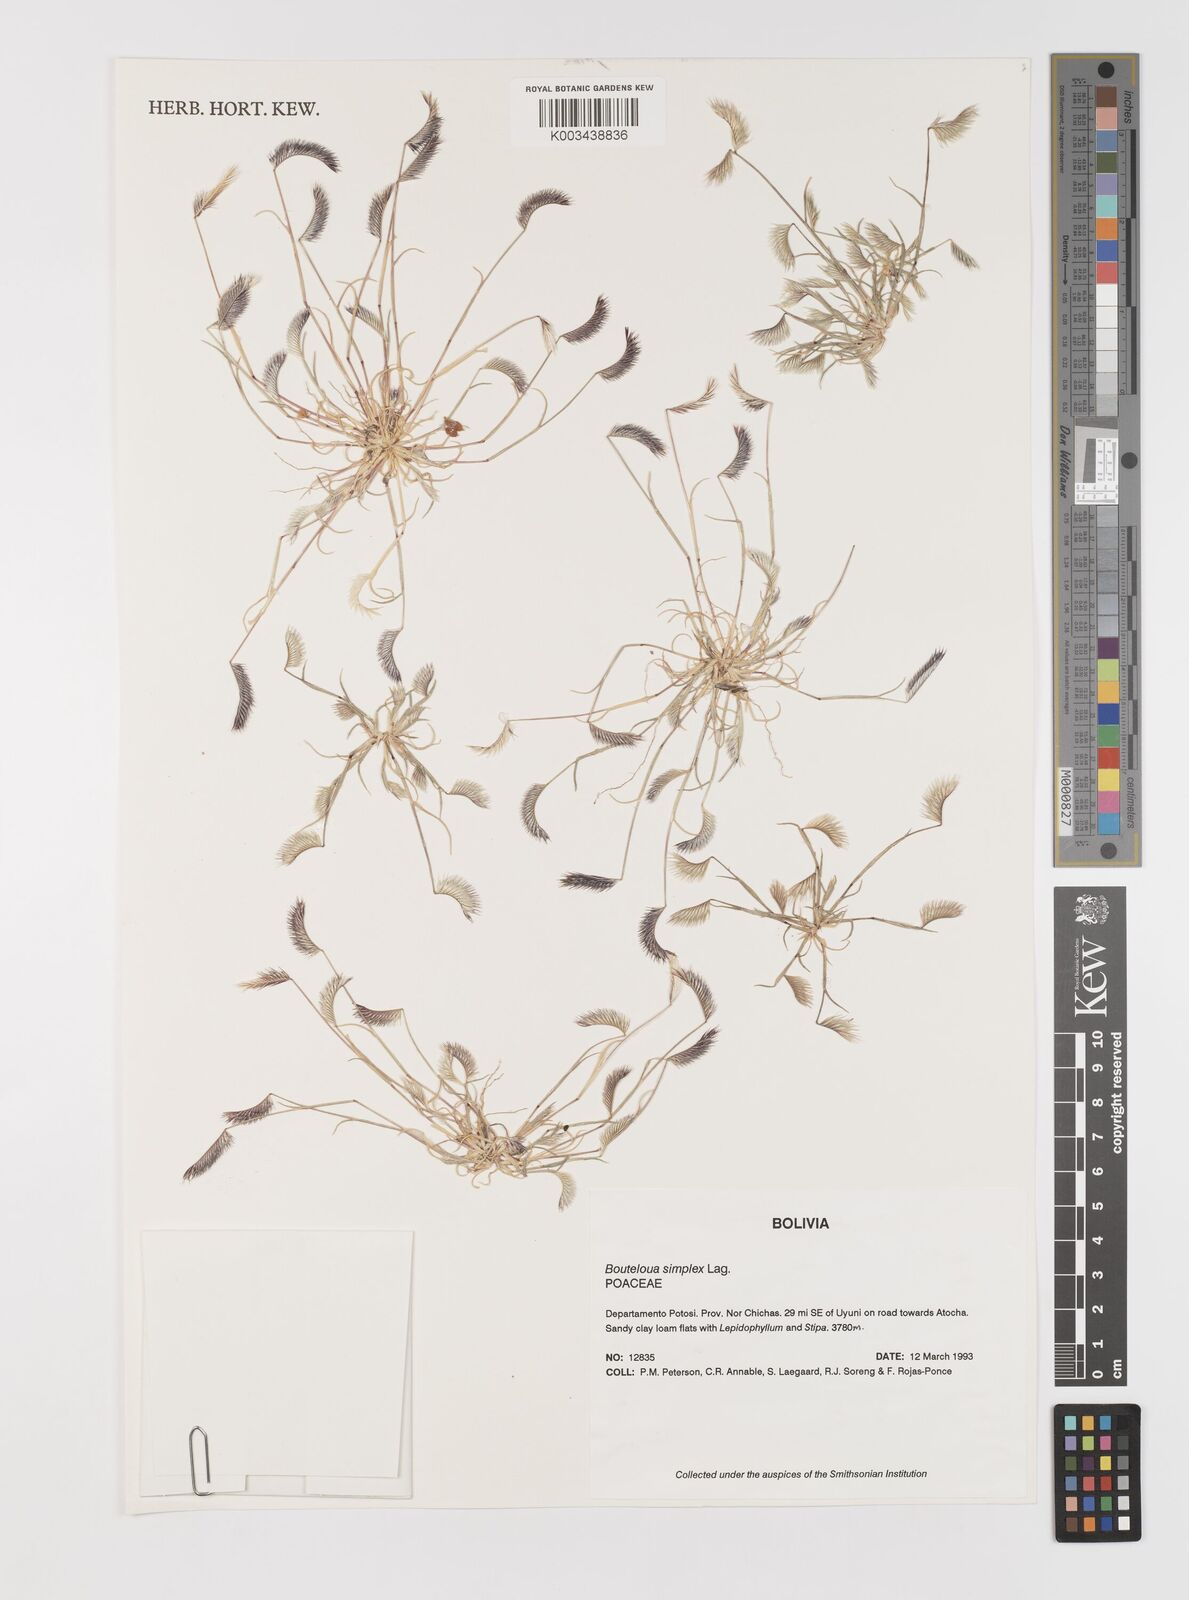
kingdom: Plantae
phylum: Tracheophyta
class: Liliopsida
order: Poales
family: Poaceae
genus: Bouteloua
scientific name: Bouteloua simplex
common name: Mat grama
